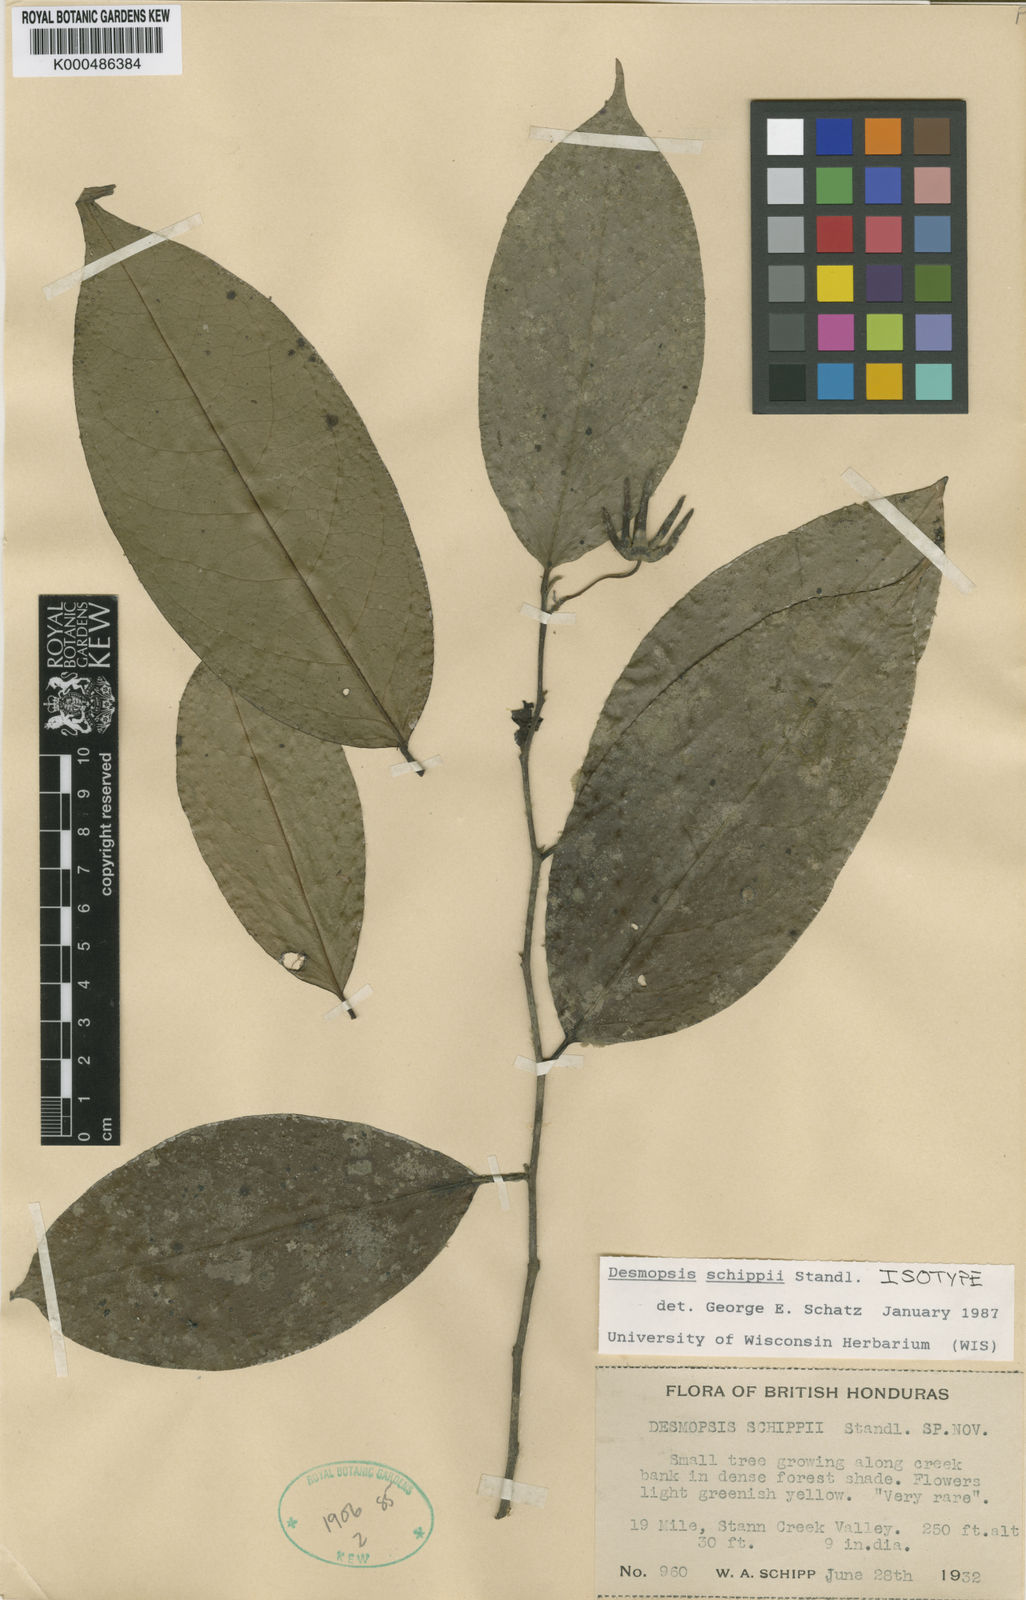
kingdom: Plantae
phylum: Tracheophyta
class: Magnoliopsida
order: Magnoliales
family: Annonaceae
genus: Desmopsis
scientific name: Desmopsis schippii
